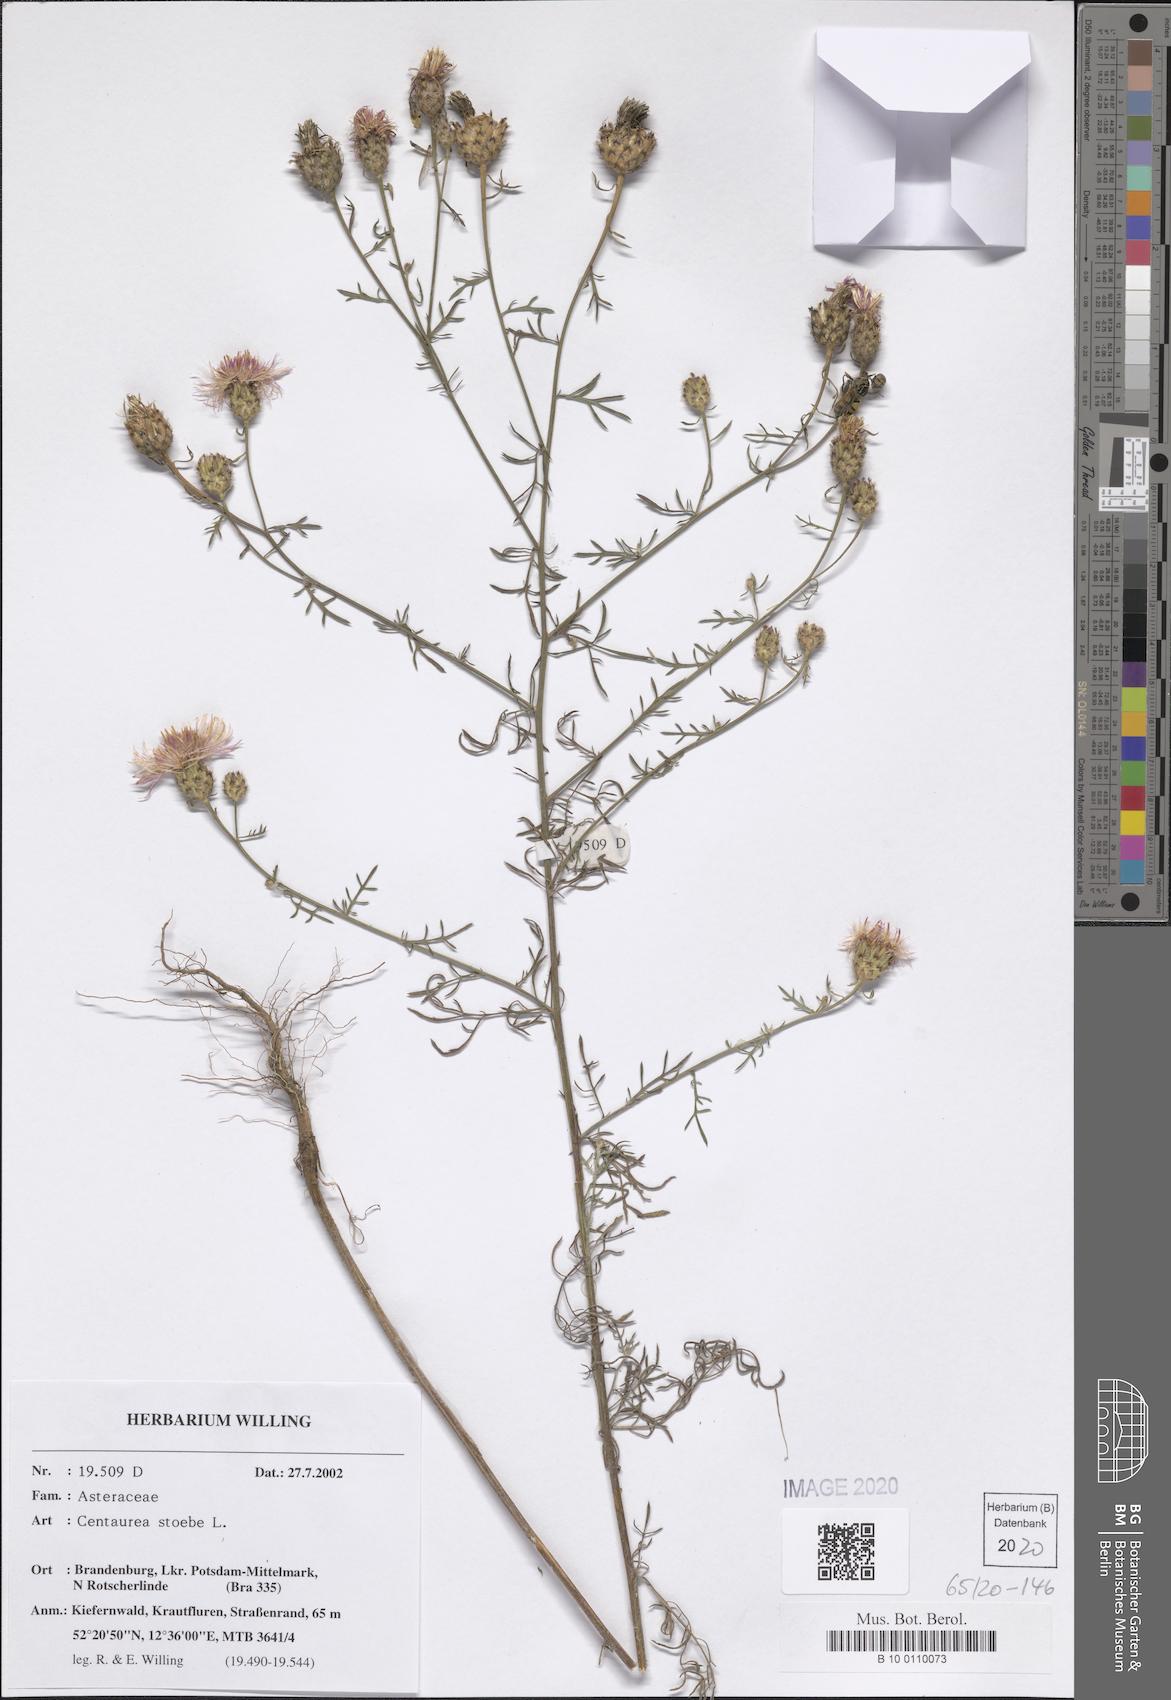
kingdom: Plantae
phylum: Tracheophyta
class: Magnoliopsida
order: Asterales
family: Asteraceae
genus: Centaurea
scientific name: Centaurea stoebe
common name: Spotted knapweed
